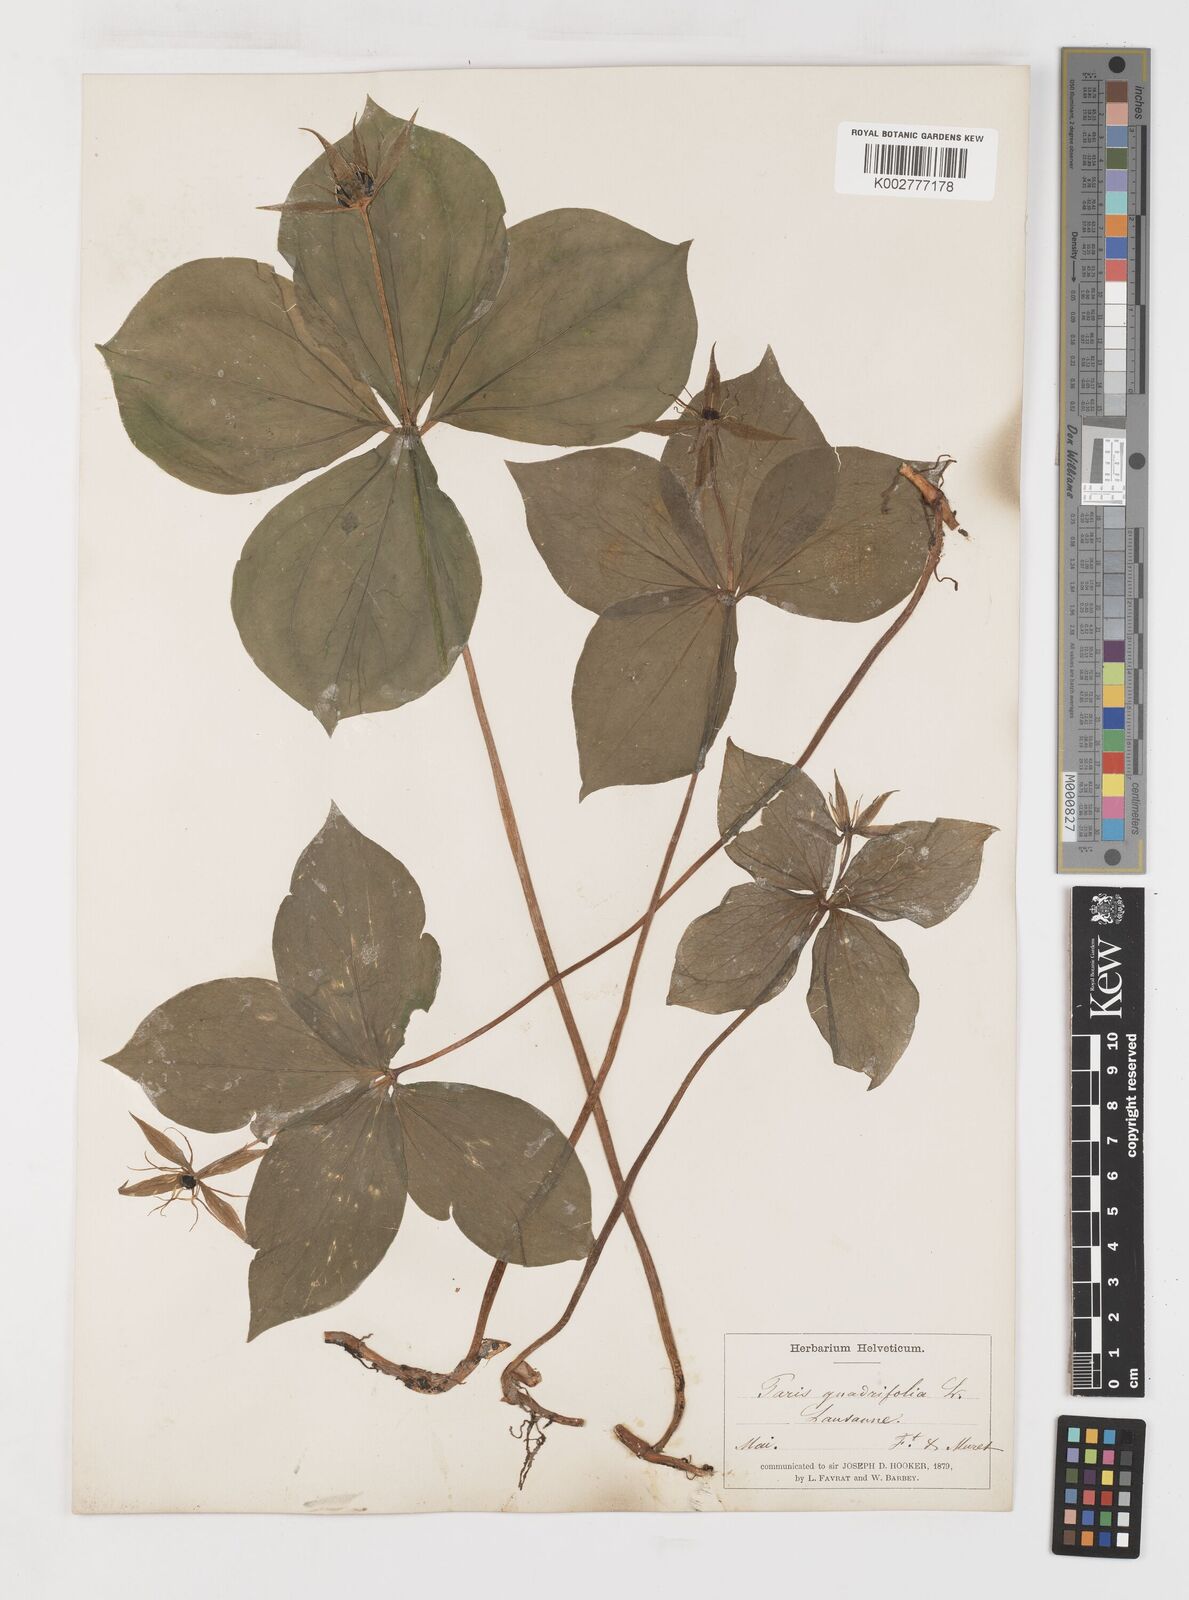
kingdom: Plantae
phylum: Tracheophyta
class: Liliopsida
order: Liliales
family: Melanthiaceae
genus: Paris
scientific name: Paris quadrifolia
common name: Herb-paris
